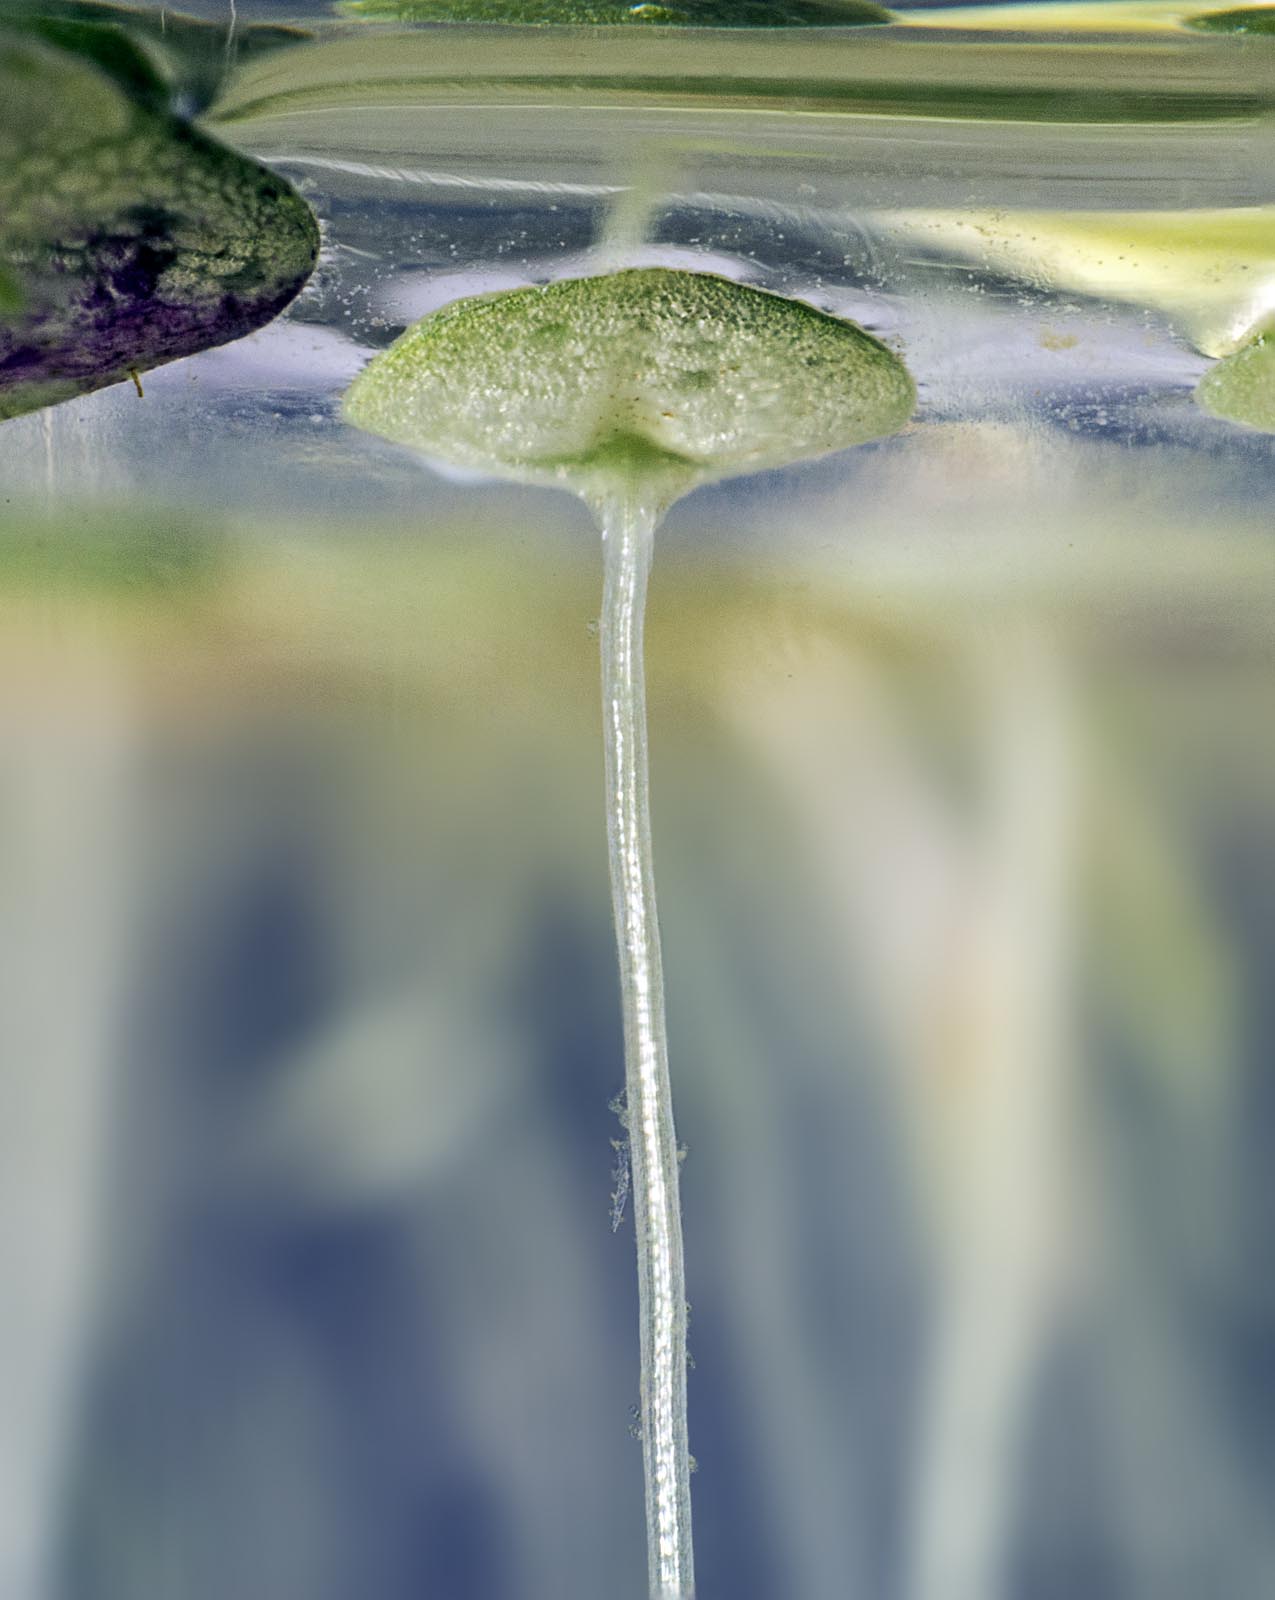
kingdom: Plantae
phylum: Tracheophyta
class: Liliopsida
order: Alismatales
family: Araceae
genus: Lemna
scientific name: Lemna aequinoctialis
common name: Duckweed
